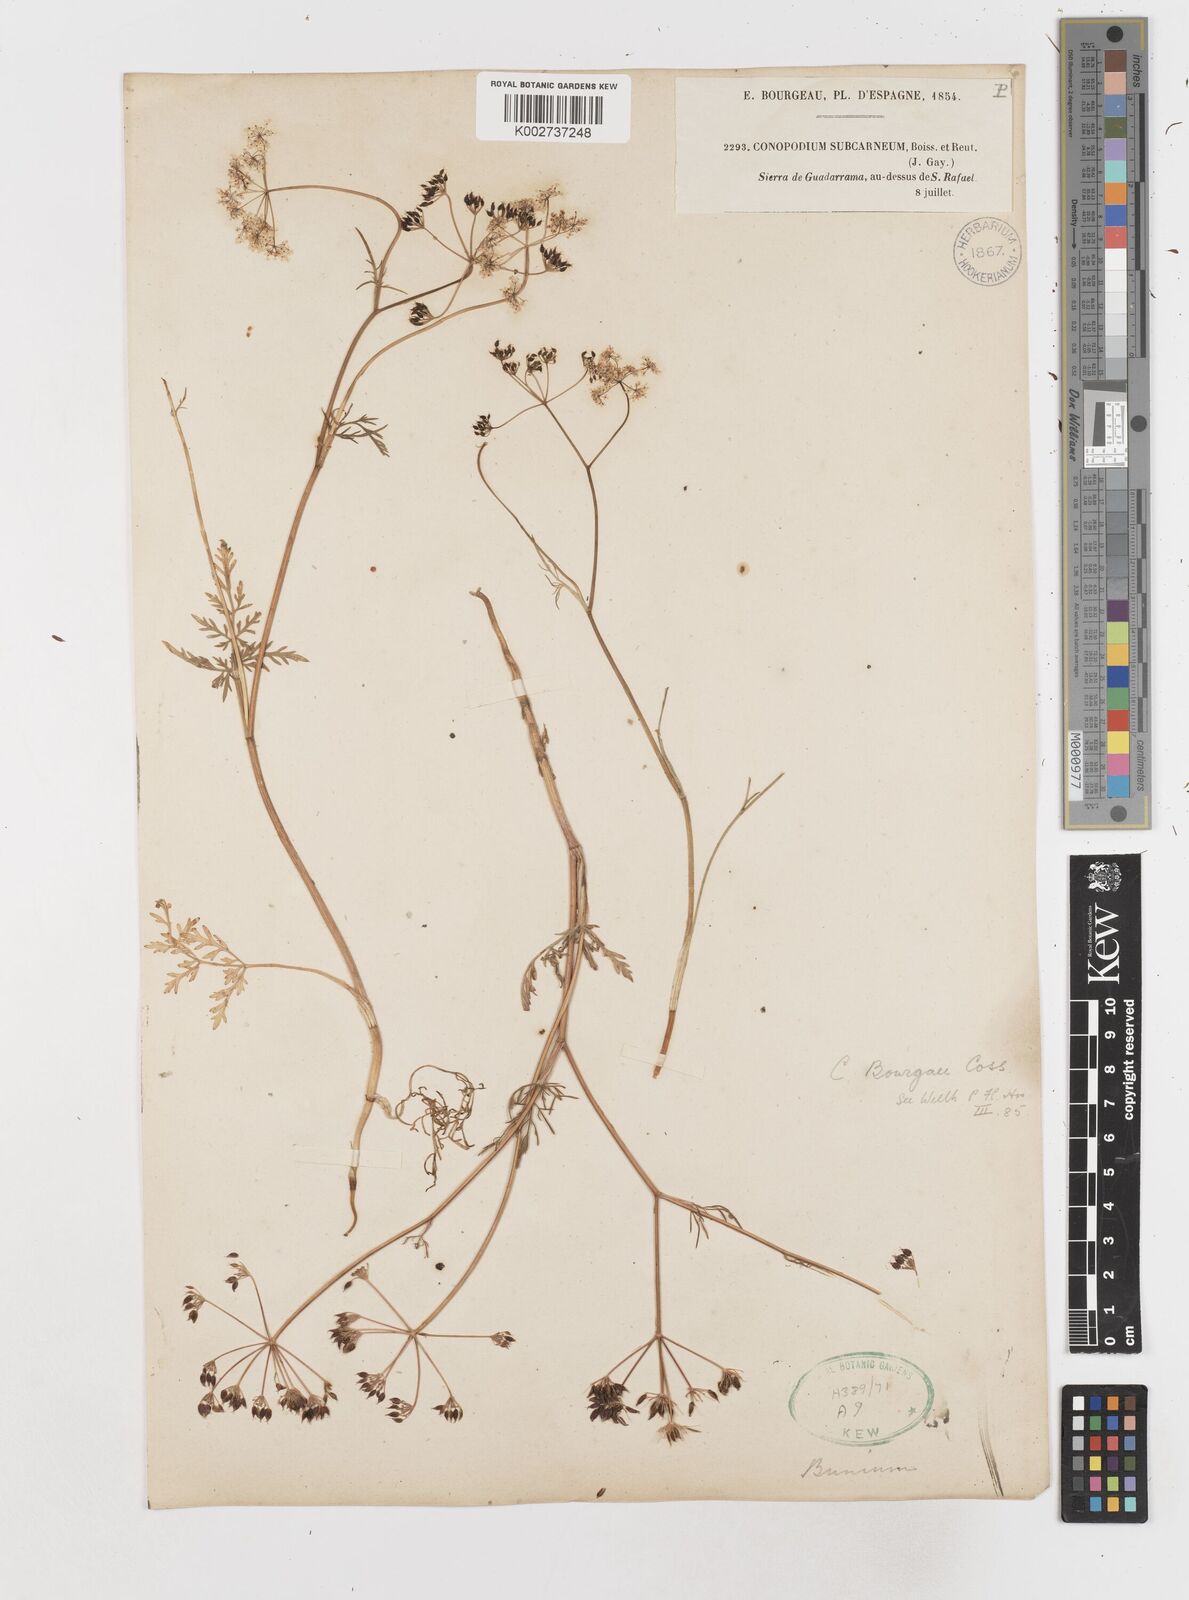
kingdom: Plantae
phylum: Tracheophyta
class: Magnoliopsida
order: Apiales
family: Apiaceae
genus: Conopodium
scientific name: Conopodium pyrenaeum
